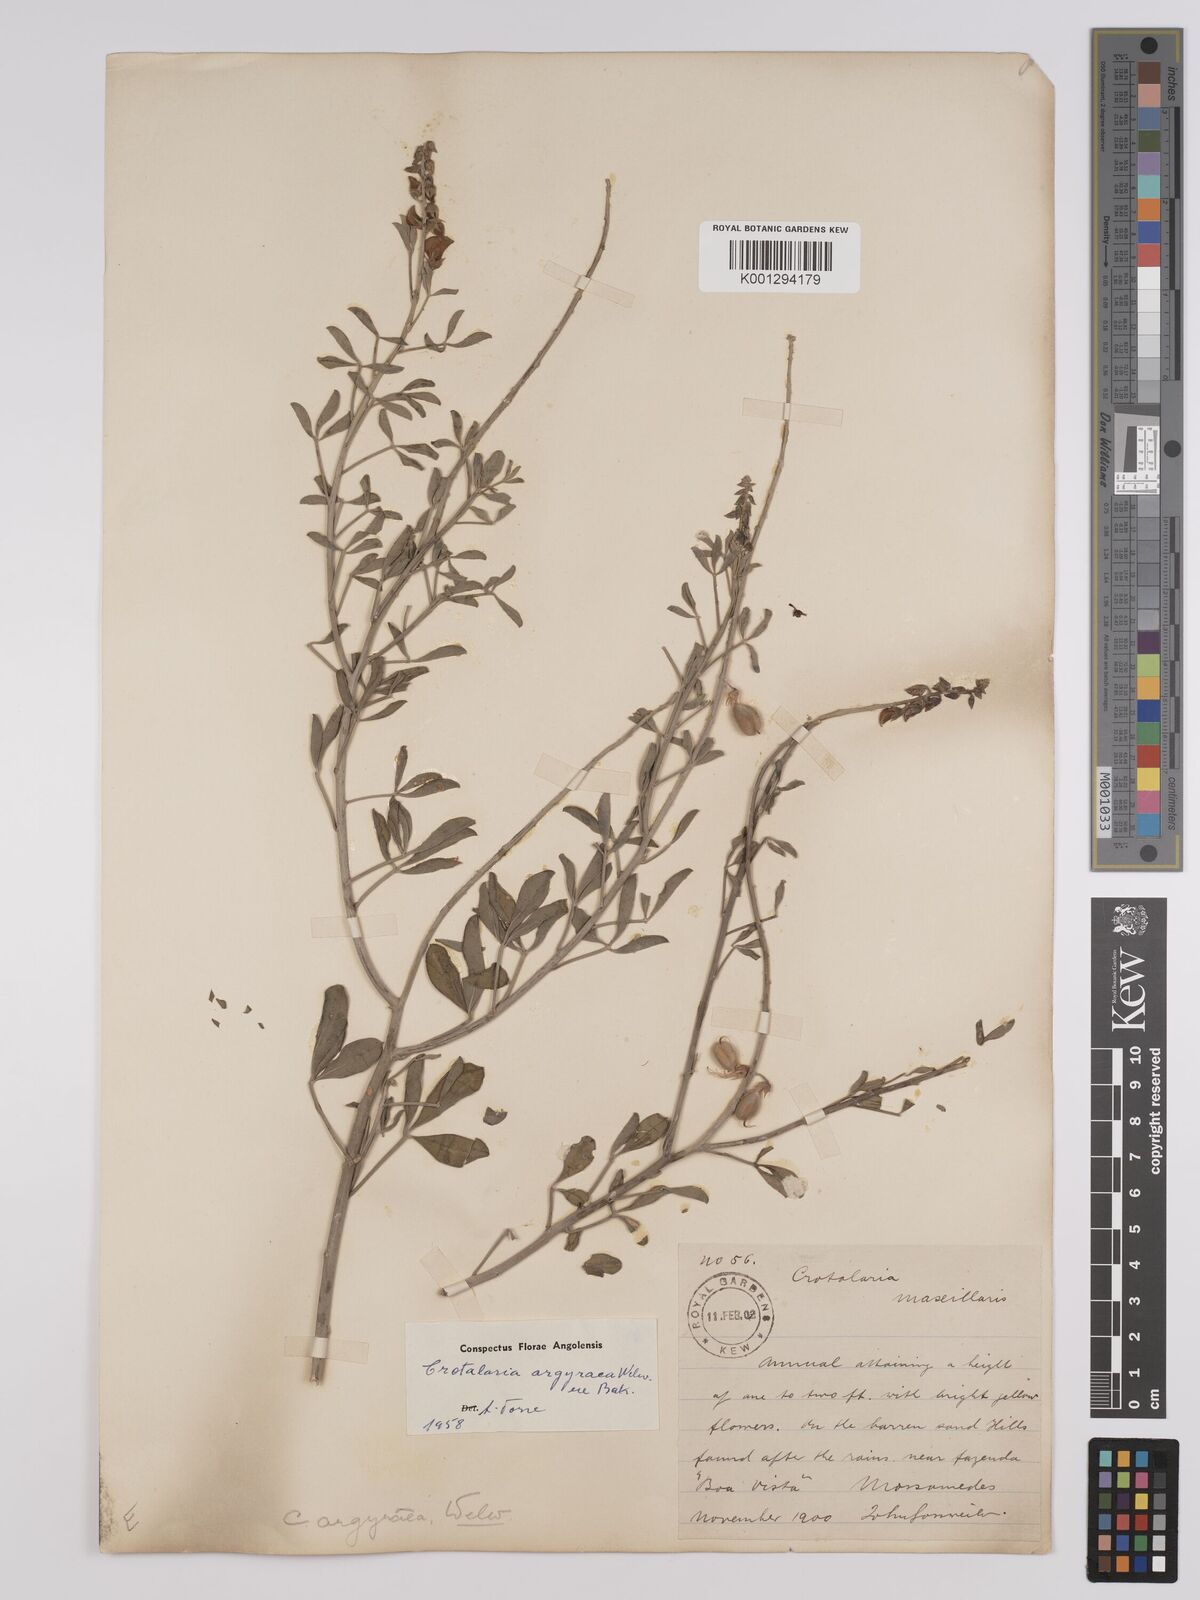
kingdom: Plantae
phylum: Tracheophyta
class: Magnoliopsida
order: Fabales
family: Fabaceae
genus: Crotalaria
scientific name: Crotalaria argyraea
